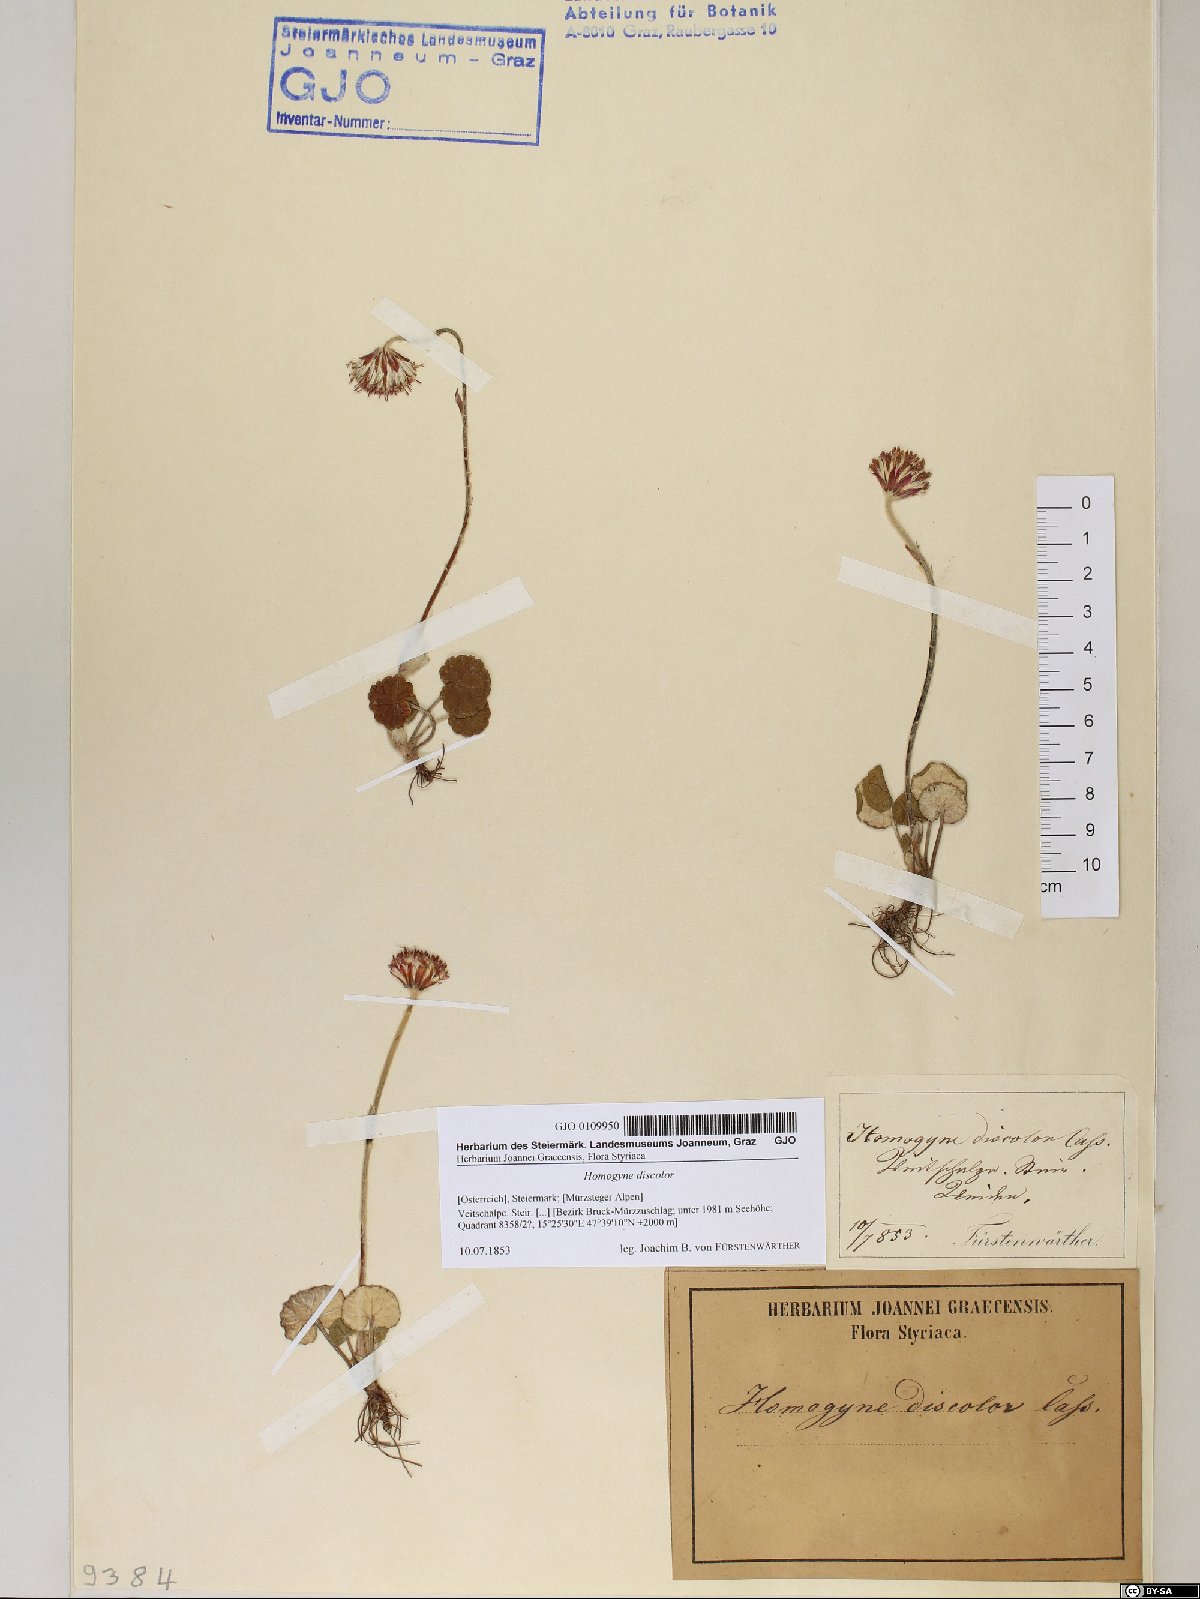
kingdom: Plantae
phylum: Tracheophyta
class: Magnoliopsida
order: Asterales
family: Asteraceae
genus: Homogyne
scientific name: Homogyne discolor
